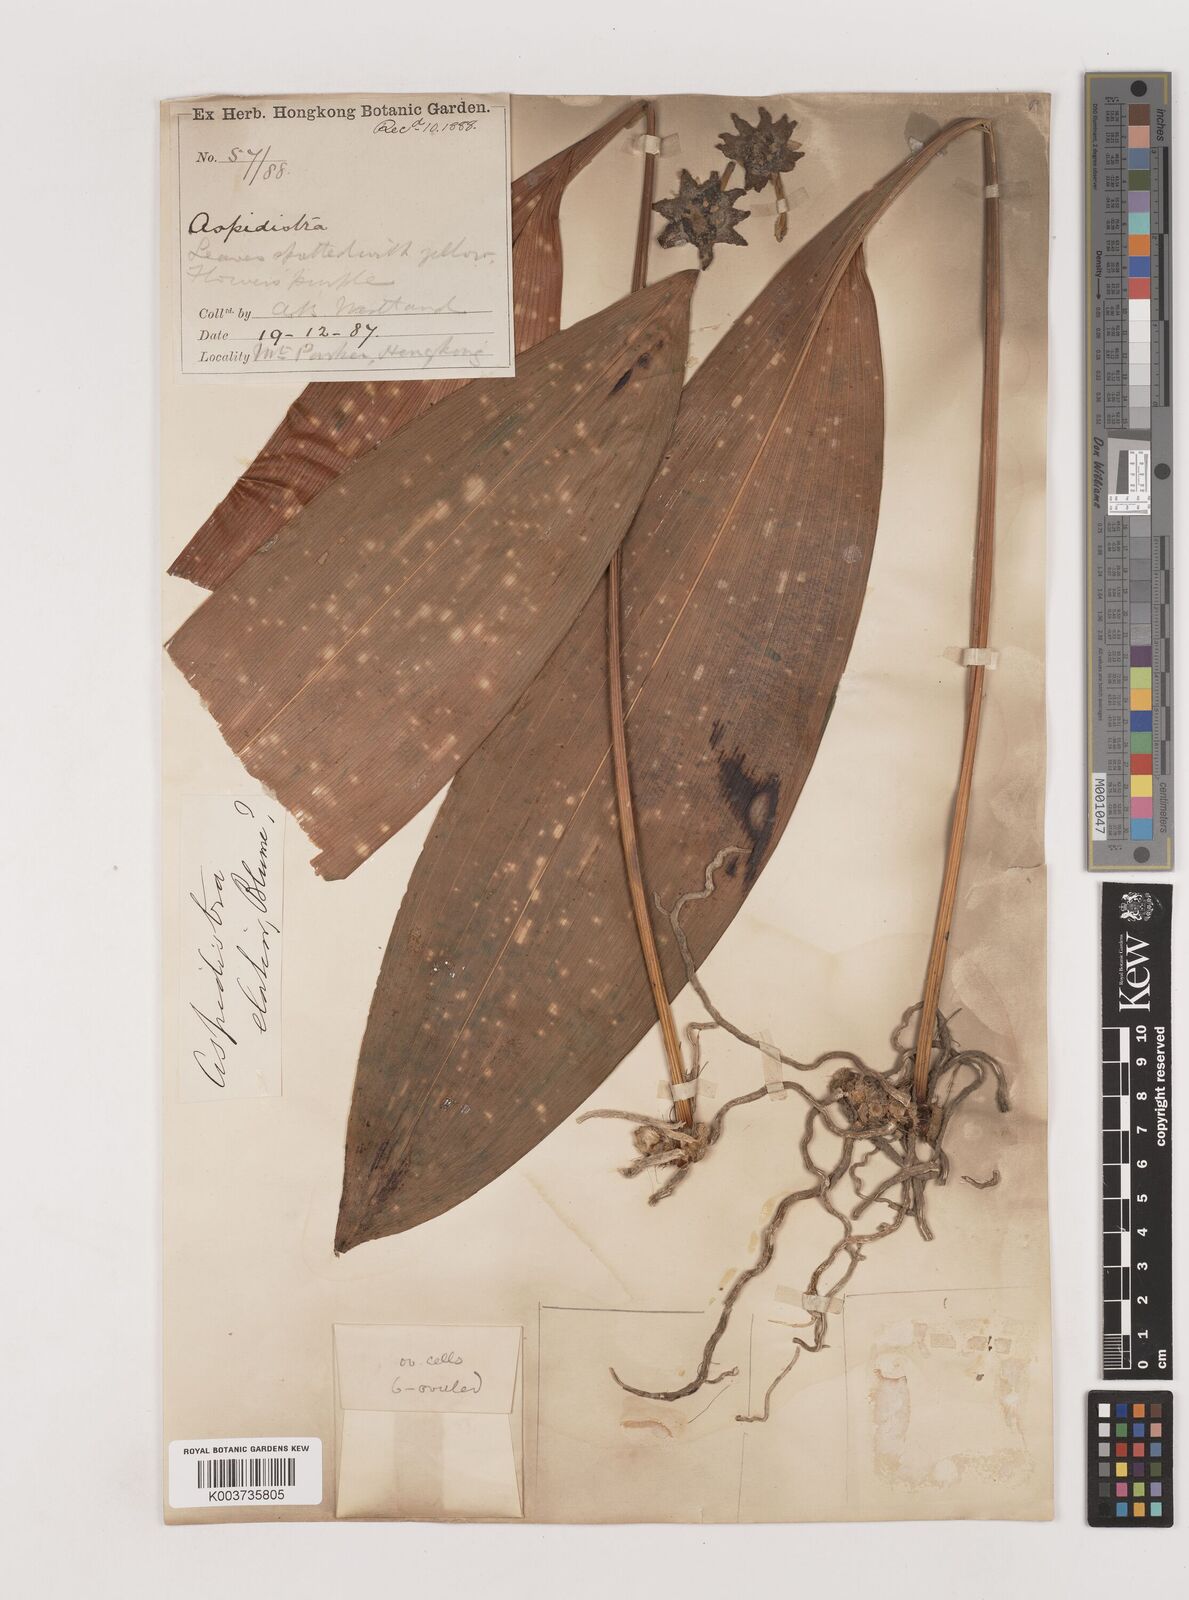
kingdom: Plantae
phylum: Tracheophyta
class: Liliopsida
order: Asparagales
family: Asparagaceae
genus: Aspidistra
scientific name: Aspidistra elatior
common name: Cast-iron-plant
